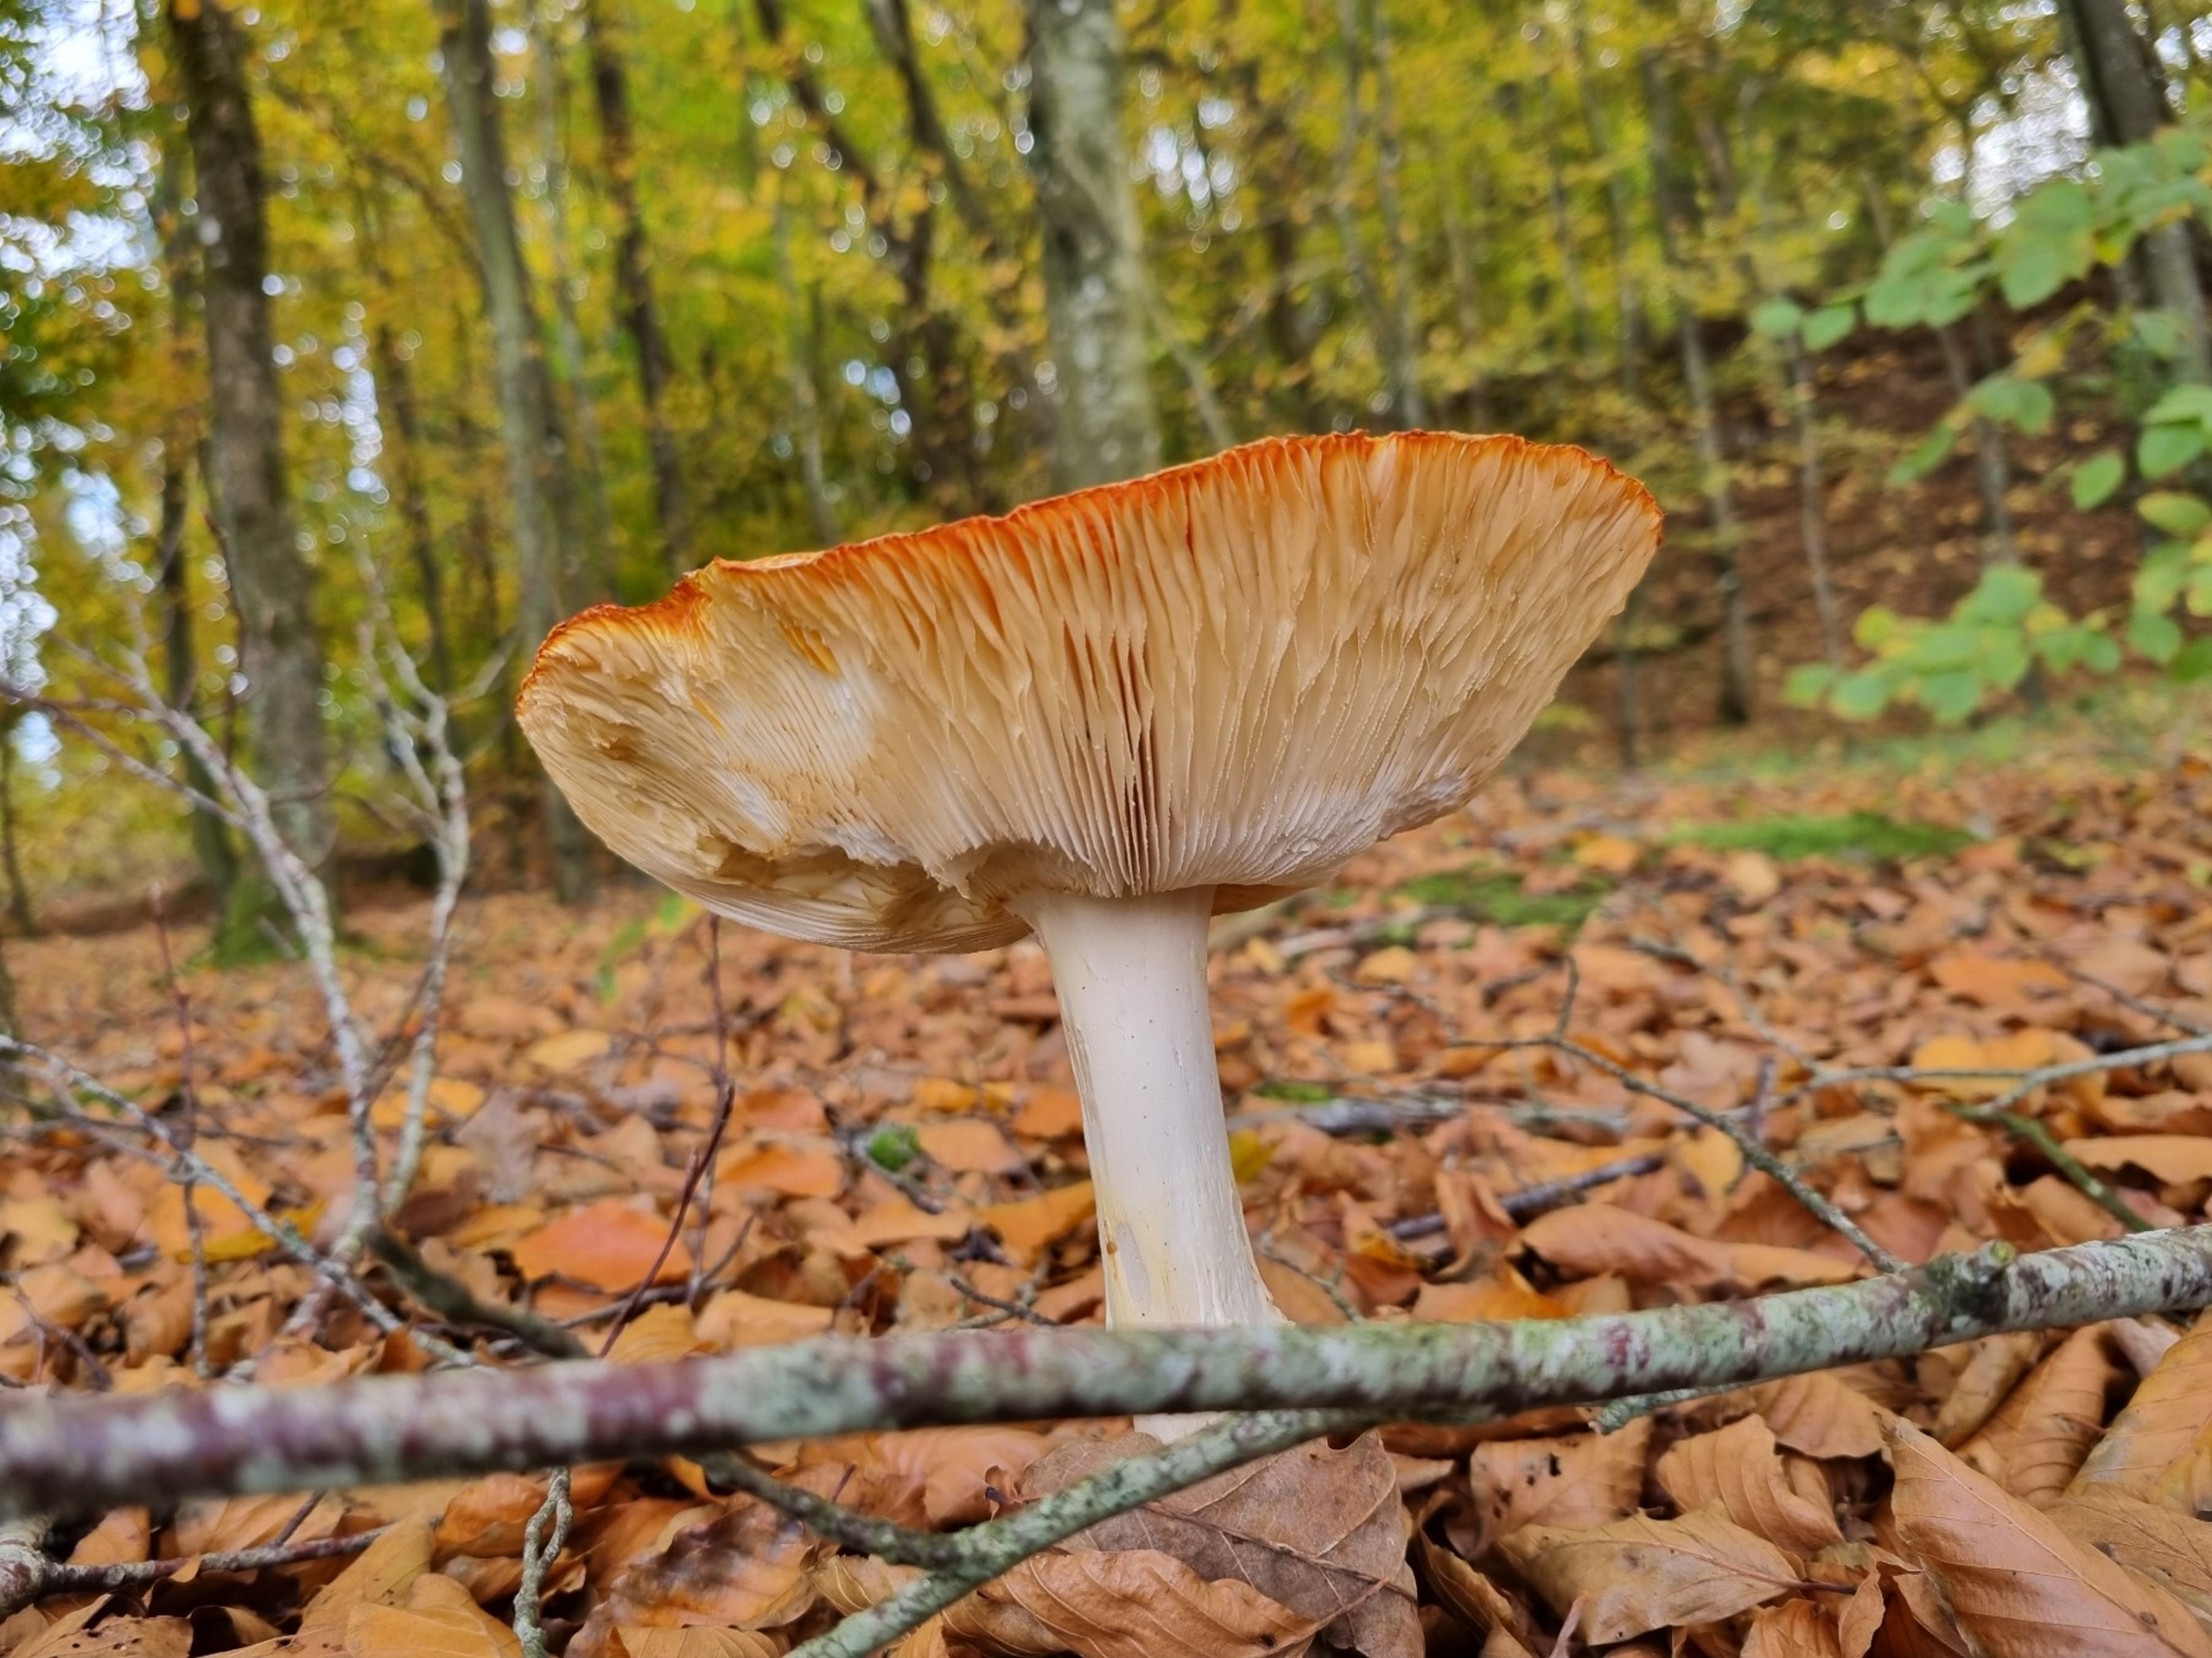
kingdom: Fungi
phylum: Basidiomycota
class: Agaricomycetes
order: Agaricales
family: Amanitaceae
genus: Amanita
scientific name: Amanita muscaria
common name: Rød fluesvamp
